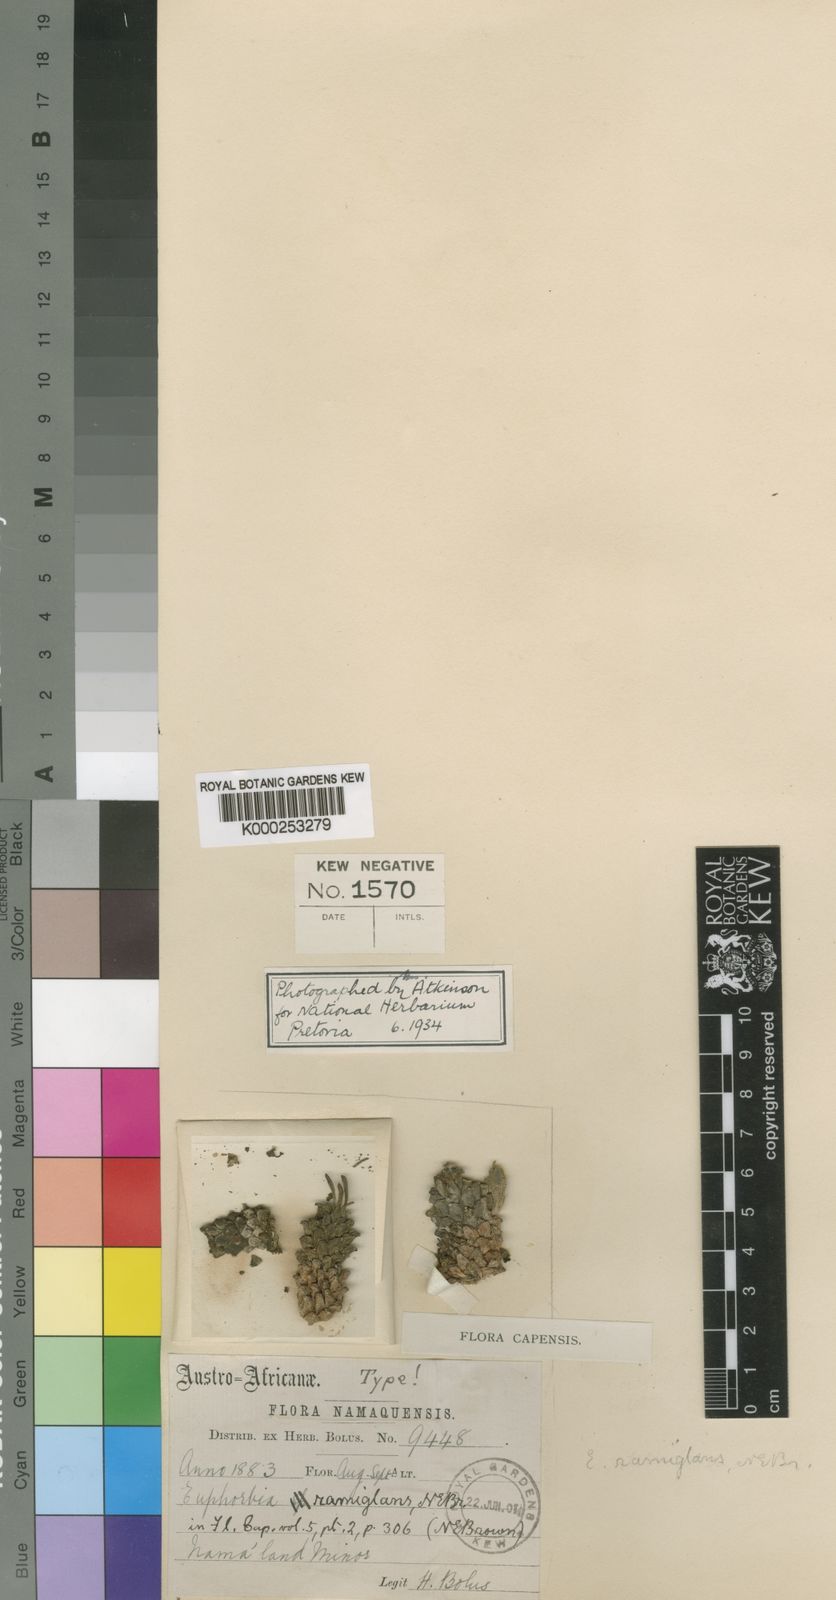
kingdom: Plantae
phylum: Tracheophyta
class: Magnoliopsida
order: Malpighiales
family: Euphorbiaceae
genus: Euphorbia
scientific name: Euphorbia caput-medusae
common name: Medusa's-head
